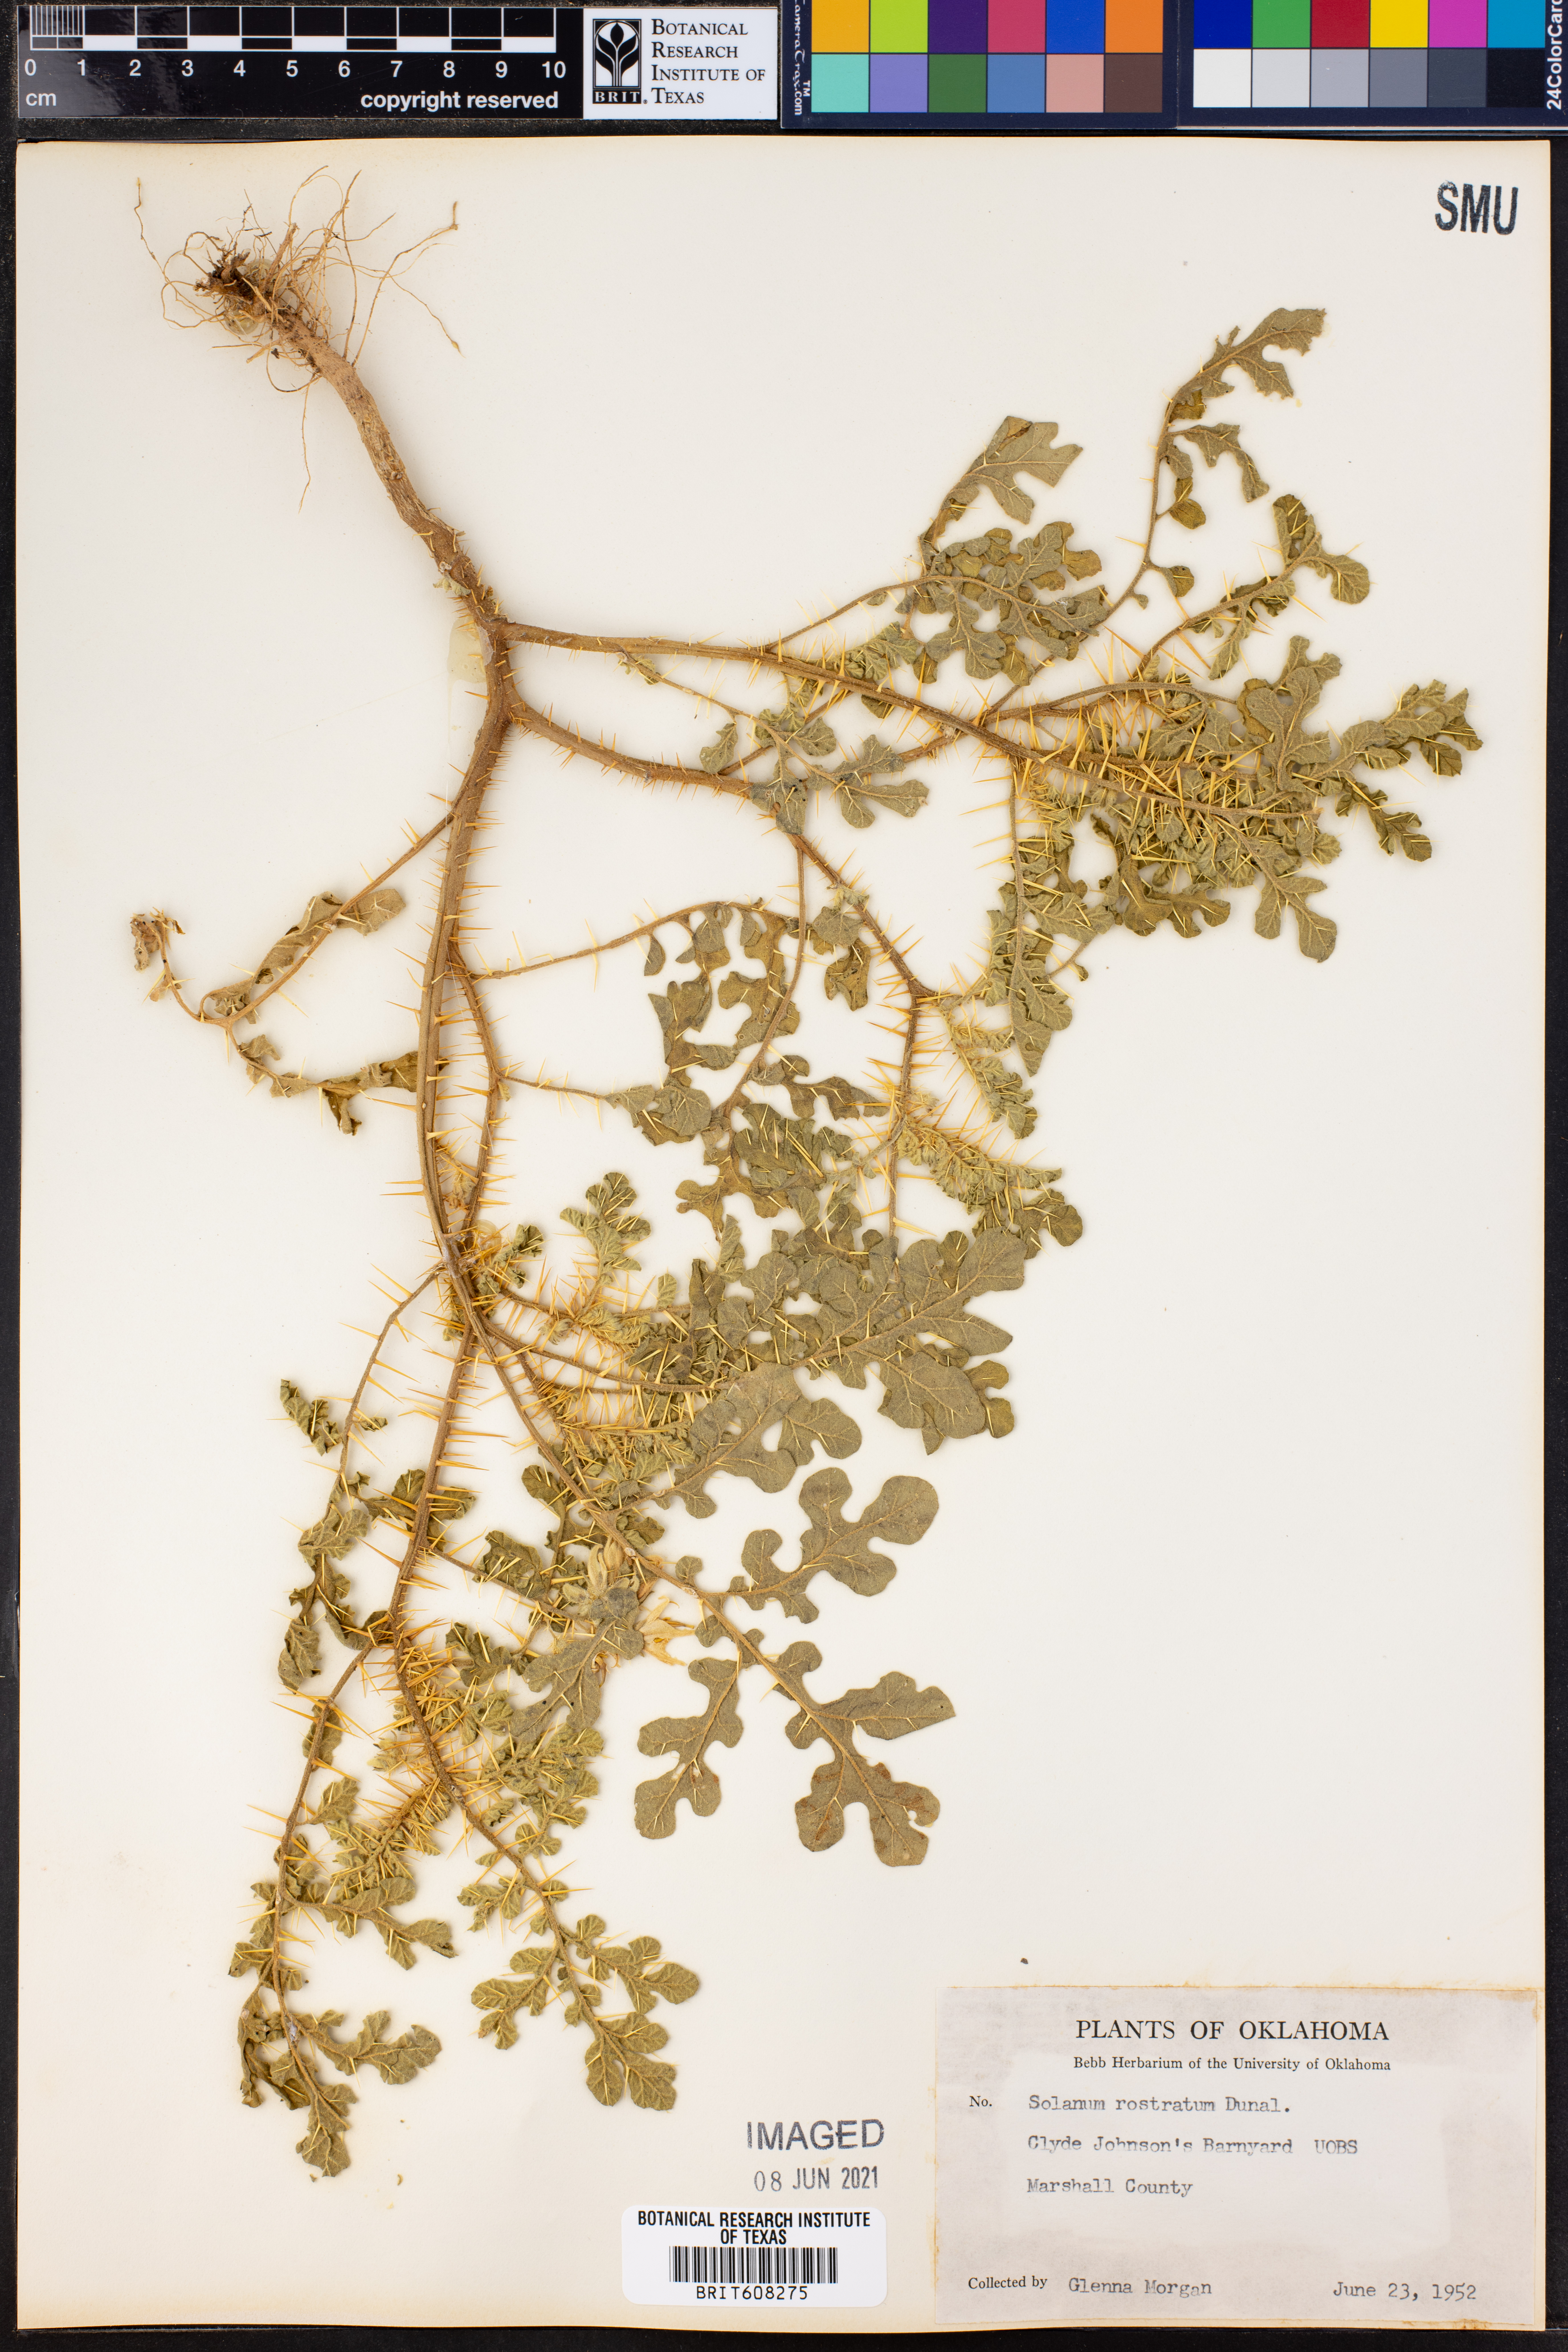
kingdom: Plantae
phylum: Tracheophyta
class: Magnoliopsida
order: Solanales
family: Solanaceae
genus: Solanum
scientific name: Solanum angustifolium
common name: Buffalobur nightshade
